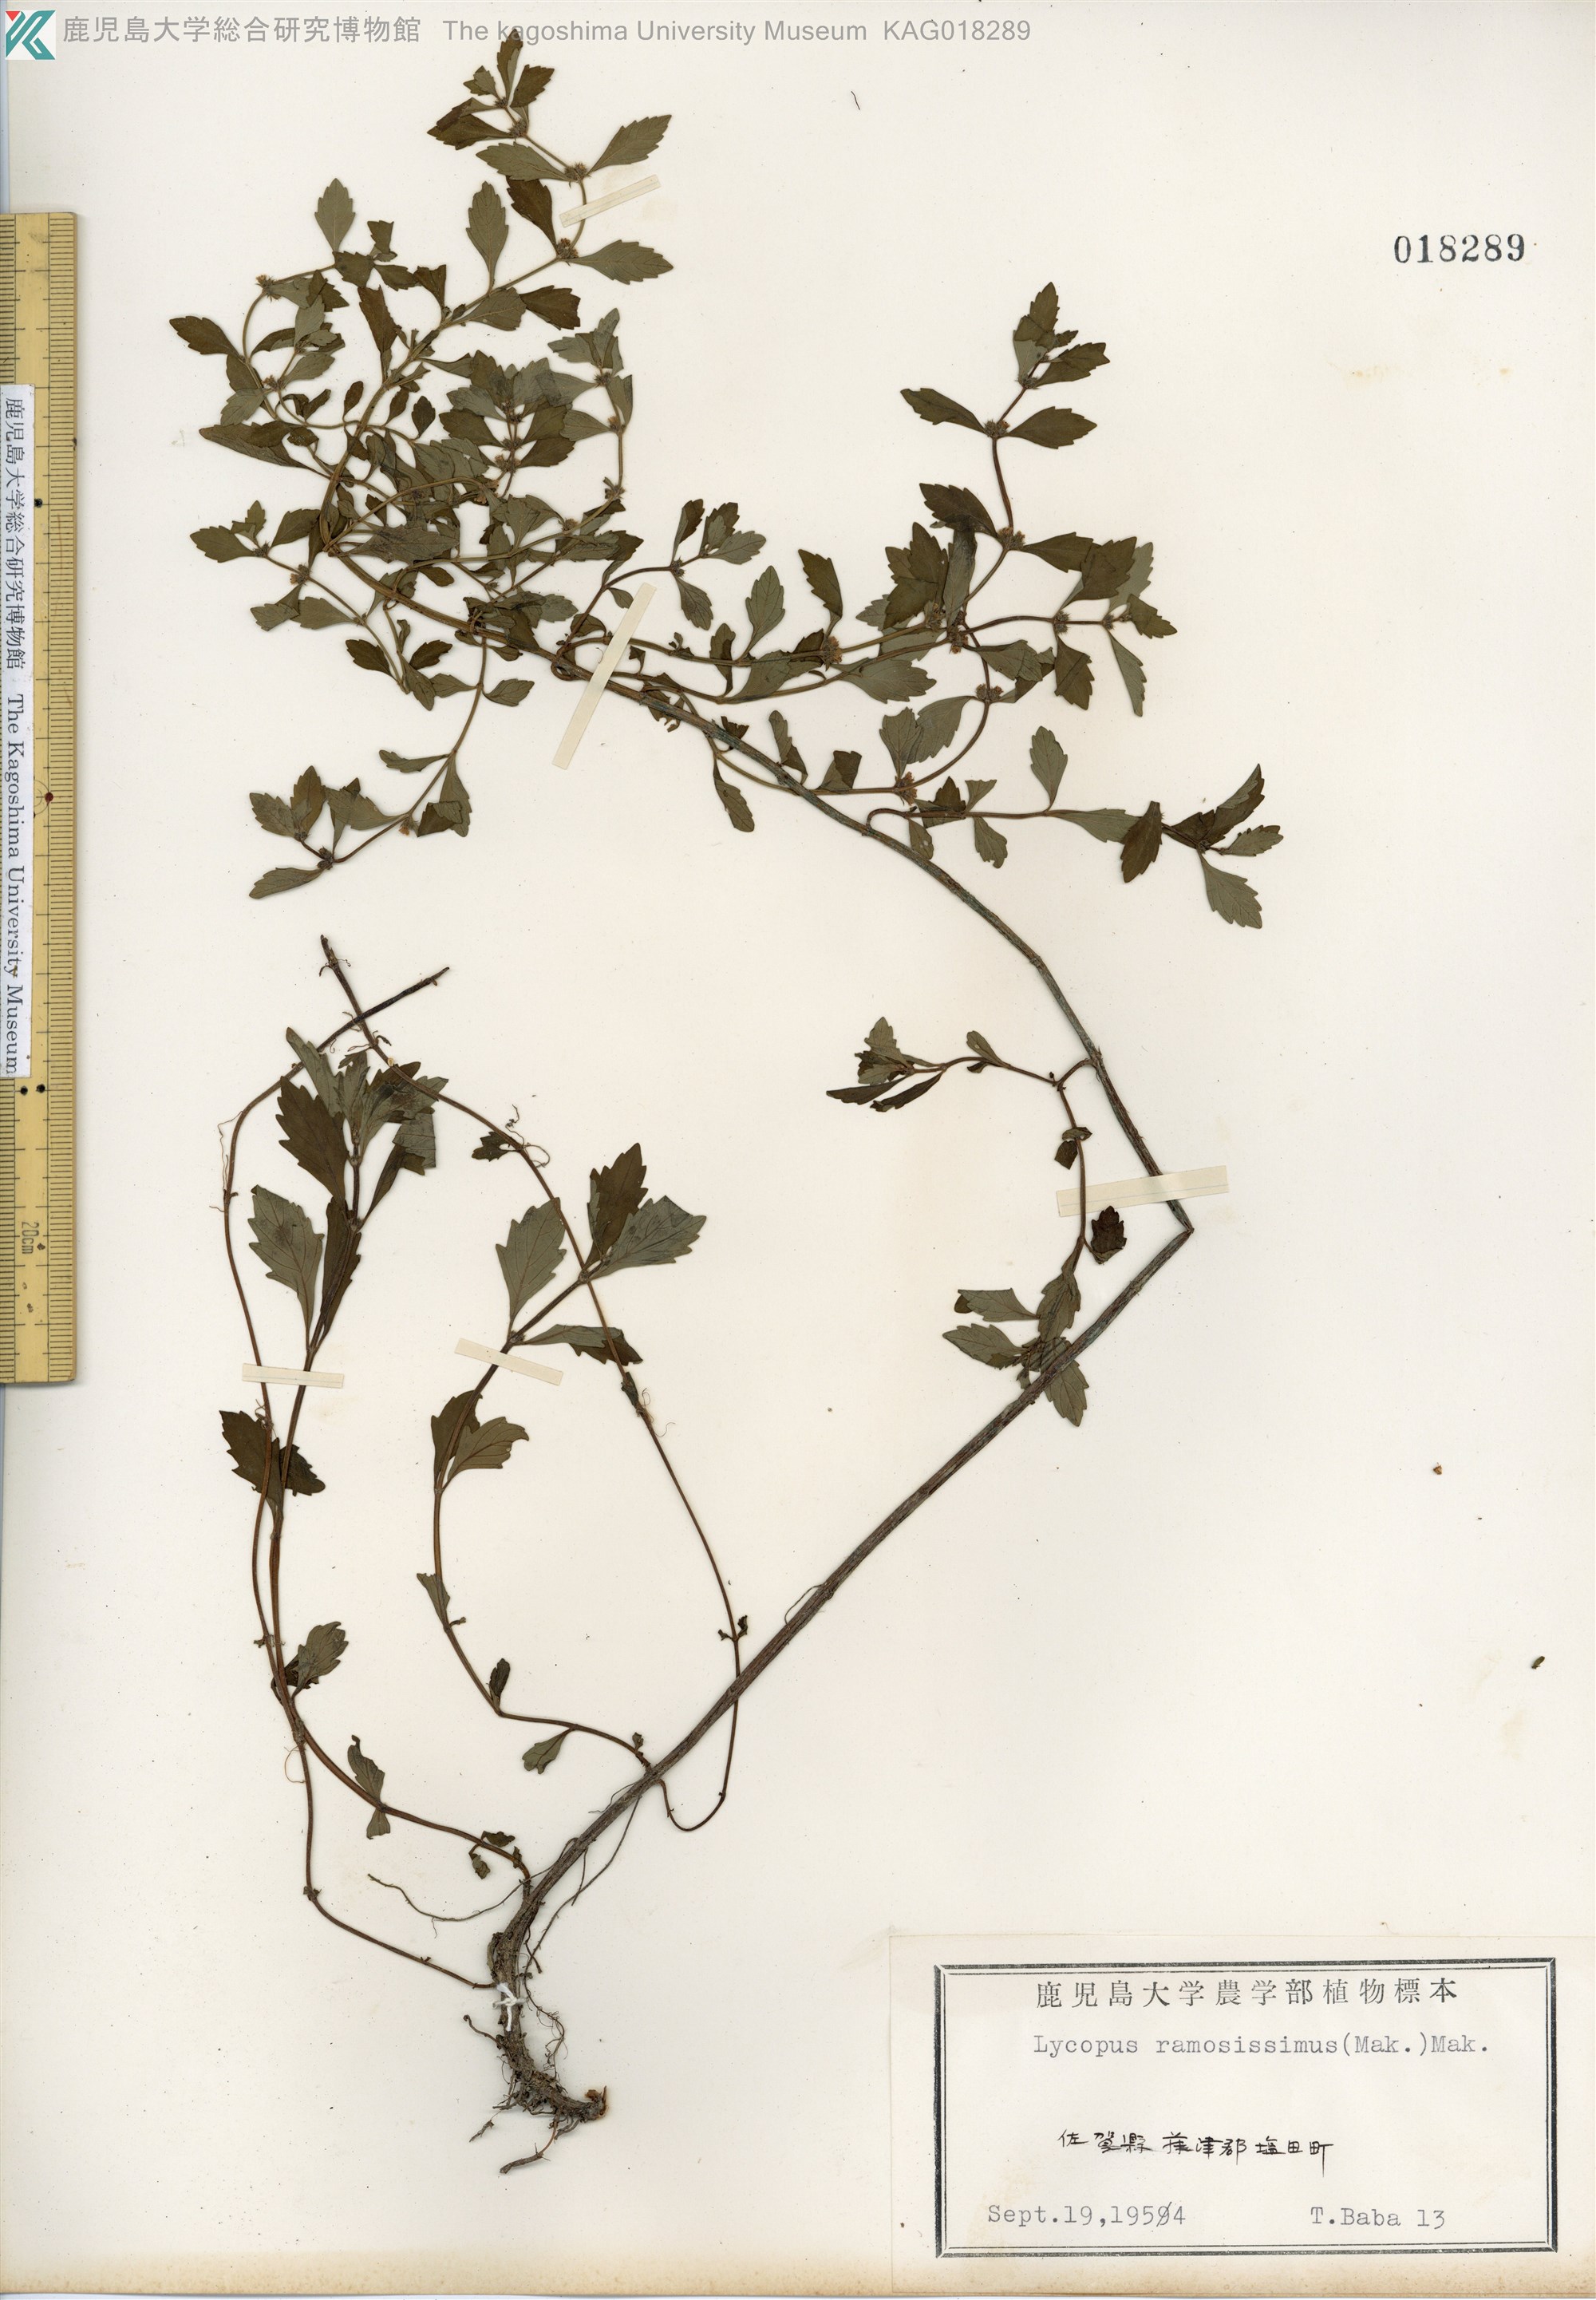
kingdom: Plantae
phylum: Tracheophyta
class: Magnoliopsida
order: Lamiales
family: Lamiaceae
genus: Lycopus
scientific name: Lycopus cavaleriei
